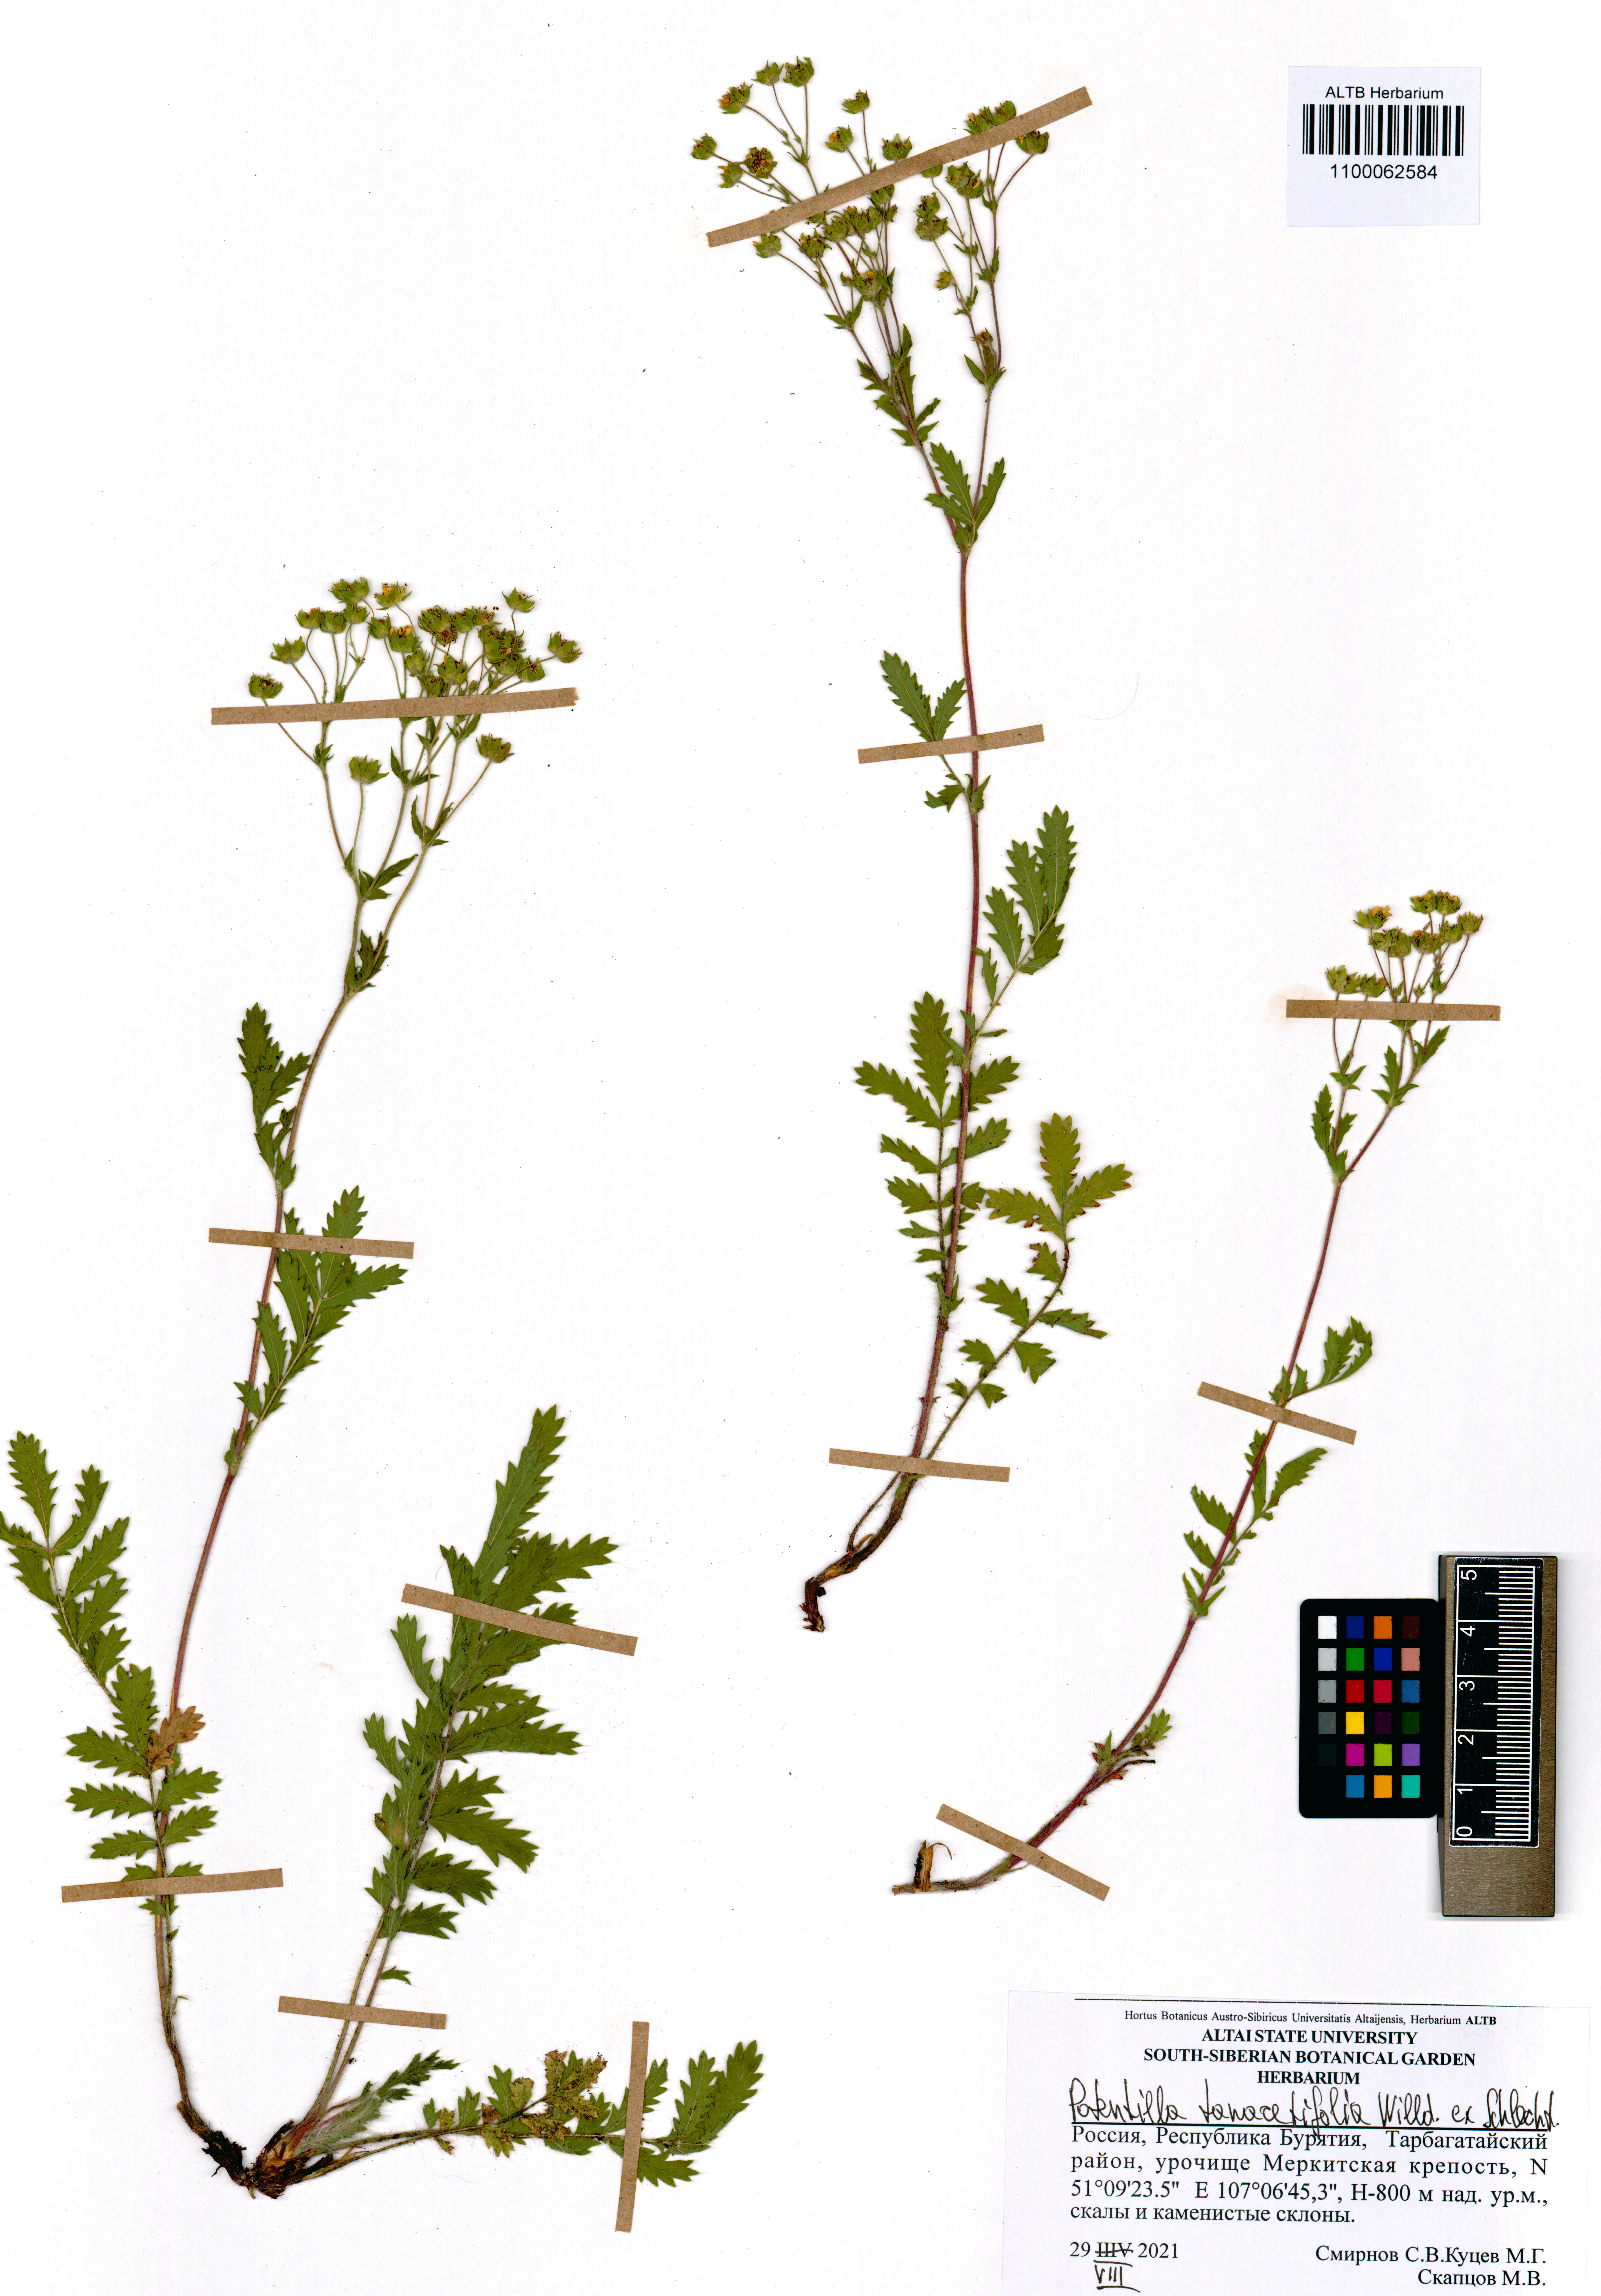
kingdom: Plantae
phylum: Tracheophyta
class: Magnoliopsida
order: Rosales
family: Rosaceae
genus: Potentilla
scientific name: Potentilla tanacetifolia
